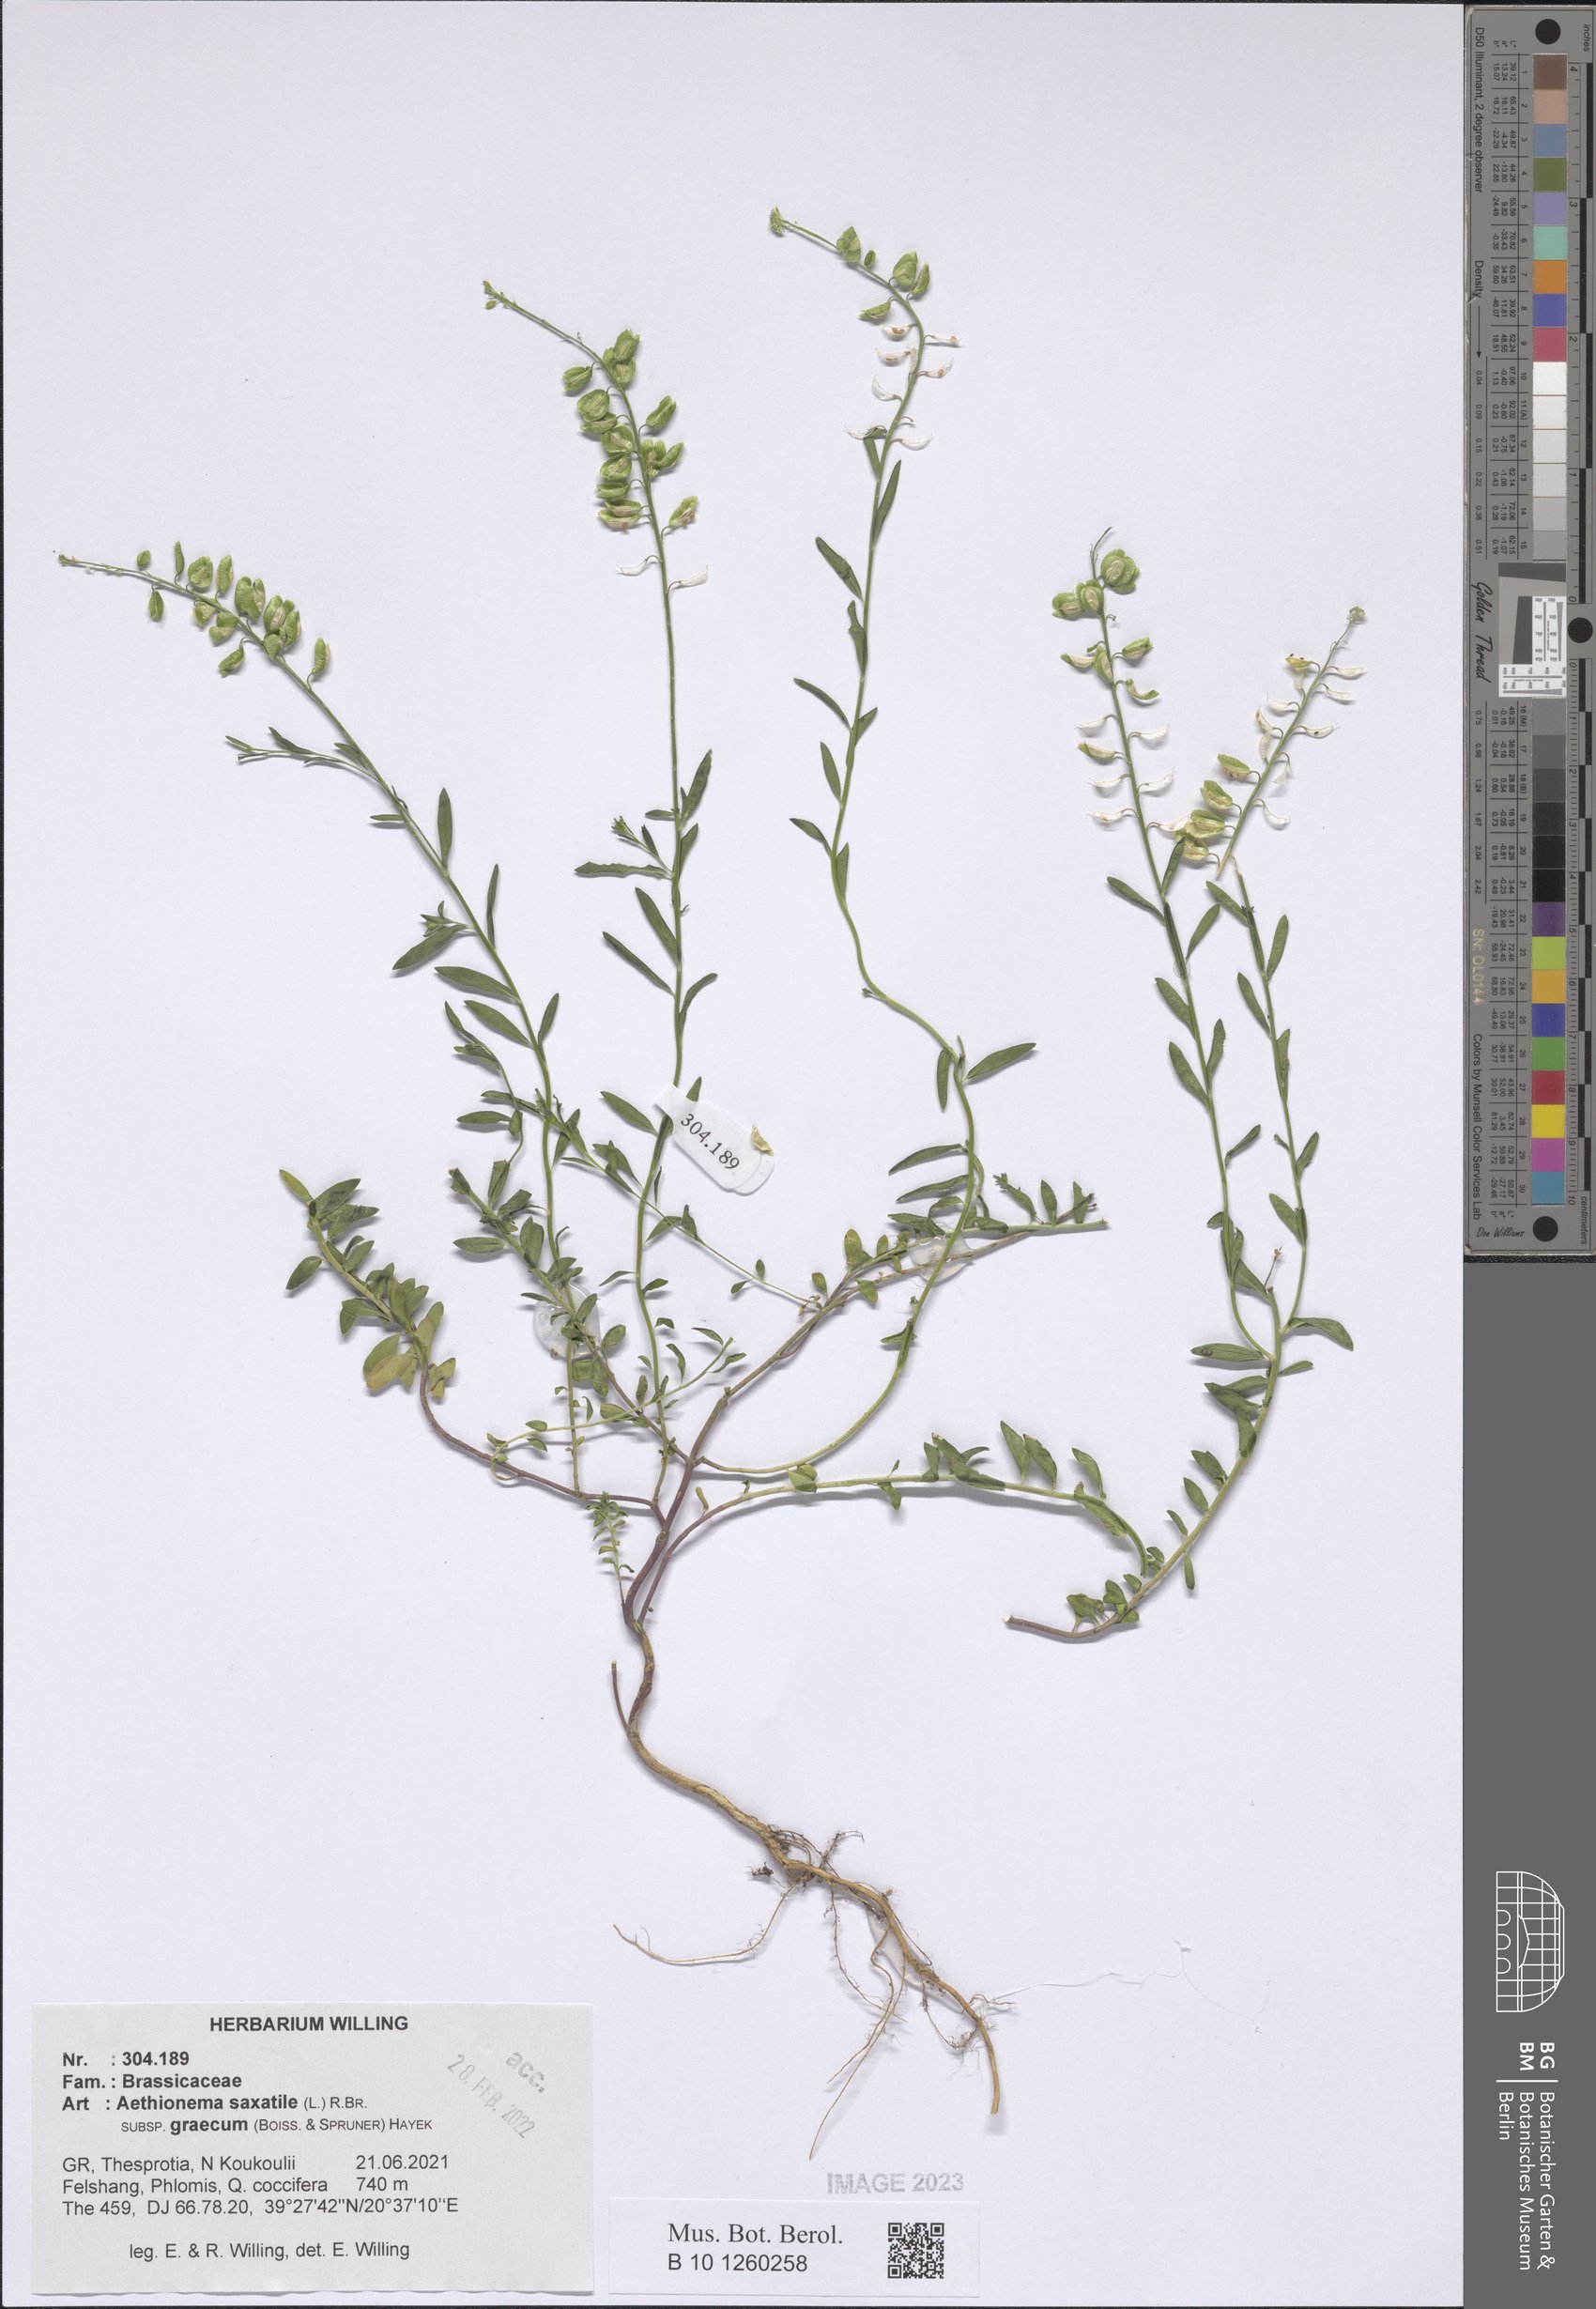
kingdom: Plantae
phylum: Tracheophyta
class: Magnoliopsida
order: Brassicales
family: Brassicaceae
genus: Aethionema
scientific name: Aethionema saxatile
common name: Burnt candytuft
